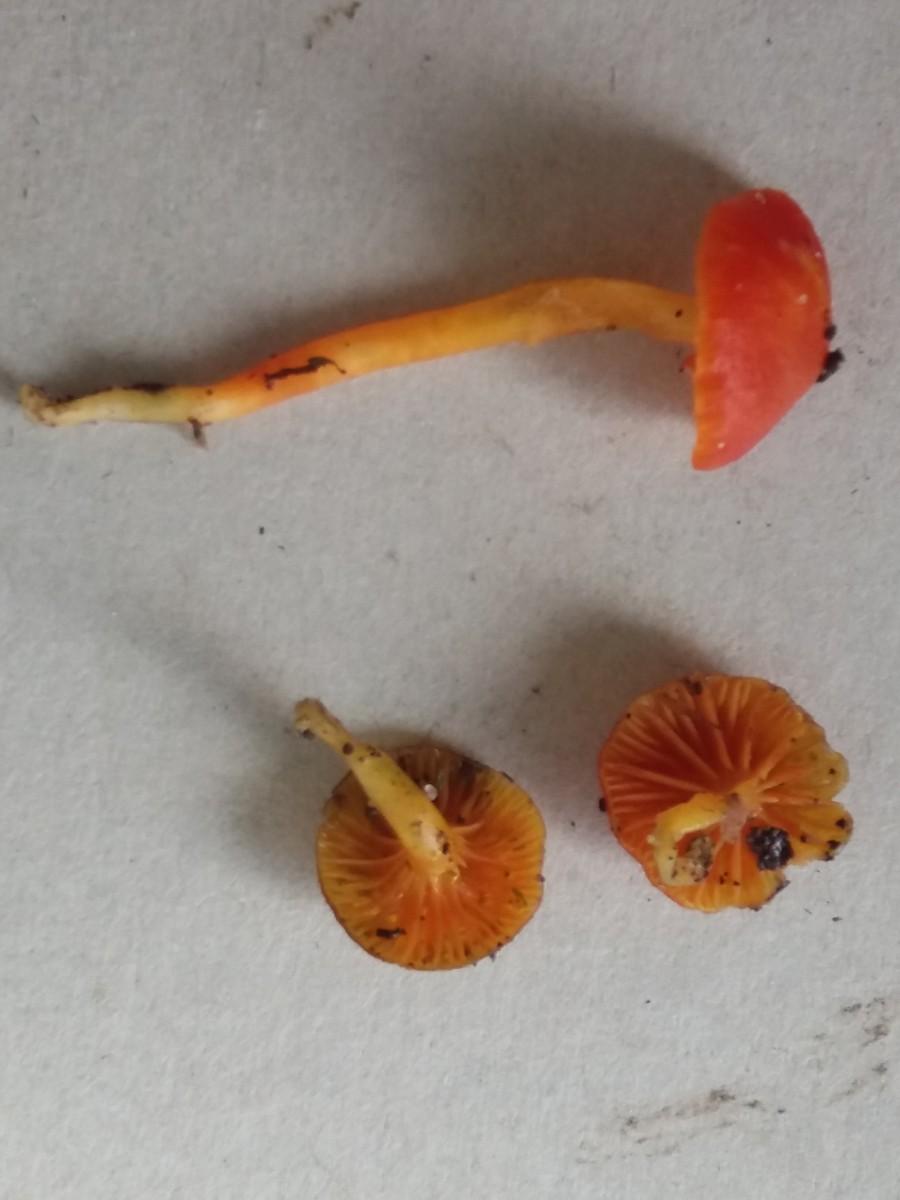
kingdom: Fungi
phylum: Basidiomycota
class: Agaricomycetes
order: Agaricales
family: Hygrophoraceae
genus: Hygrocybe
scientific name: Hygrocybe mucronella
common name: bitter vokshat
